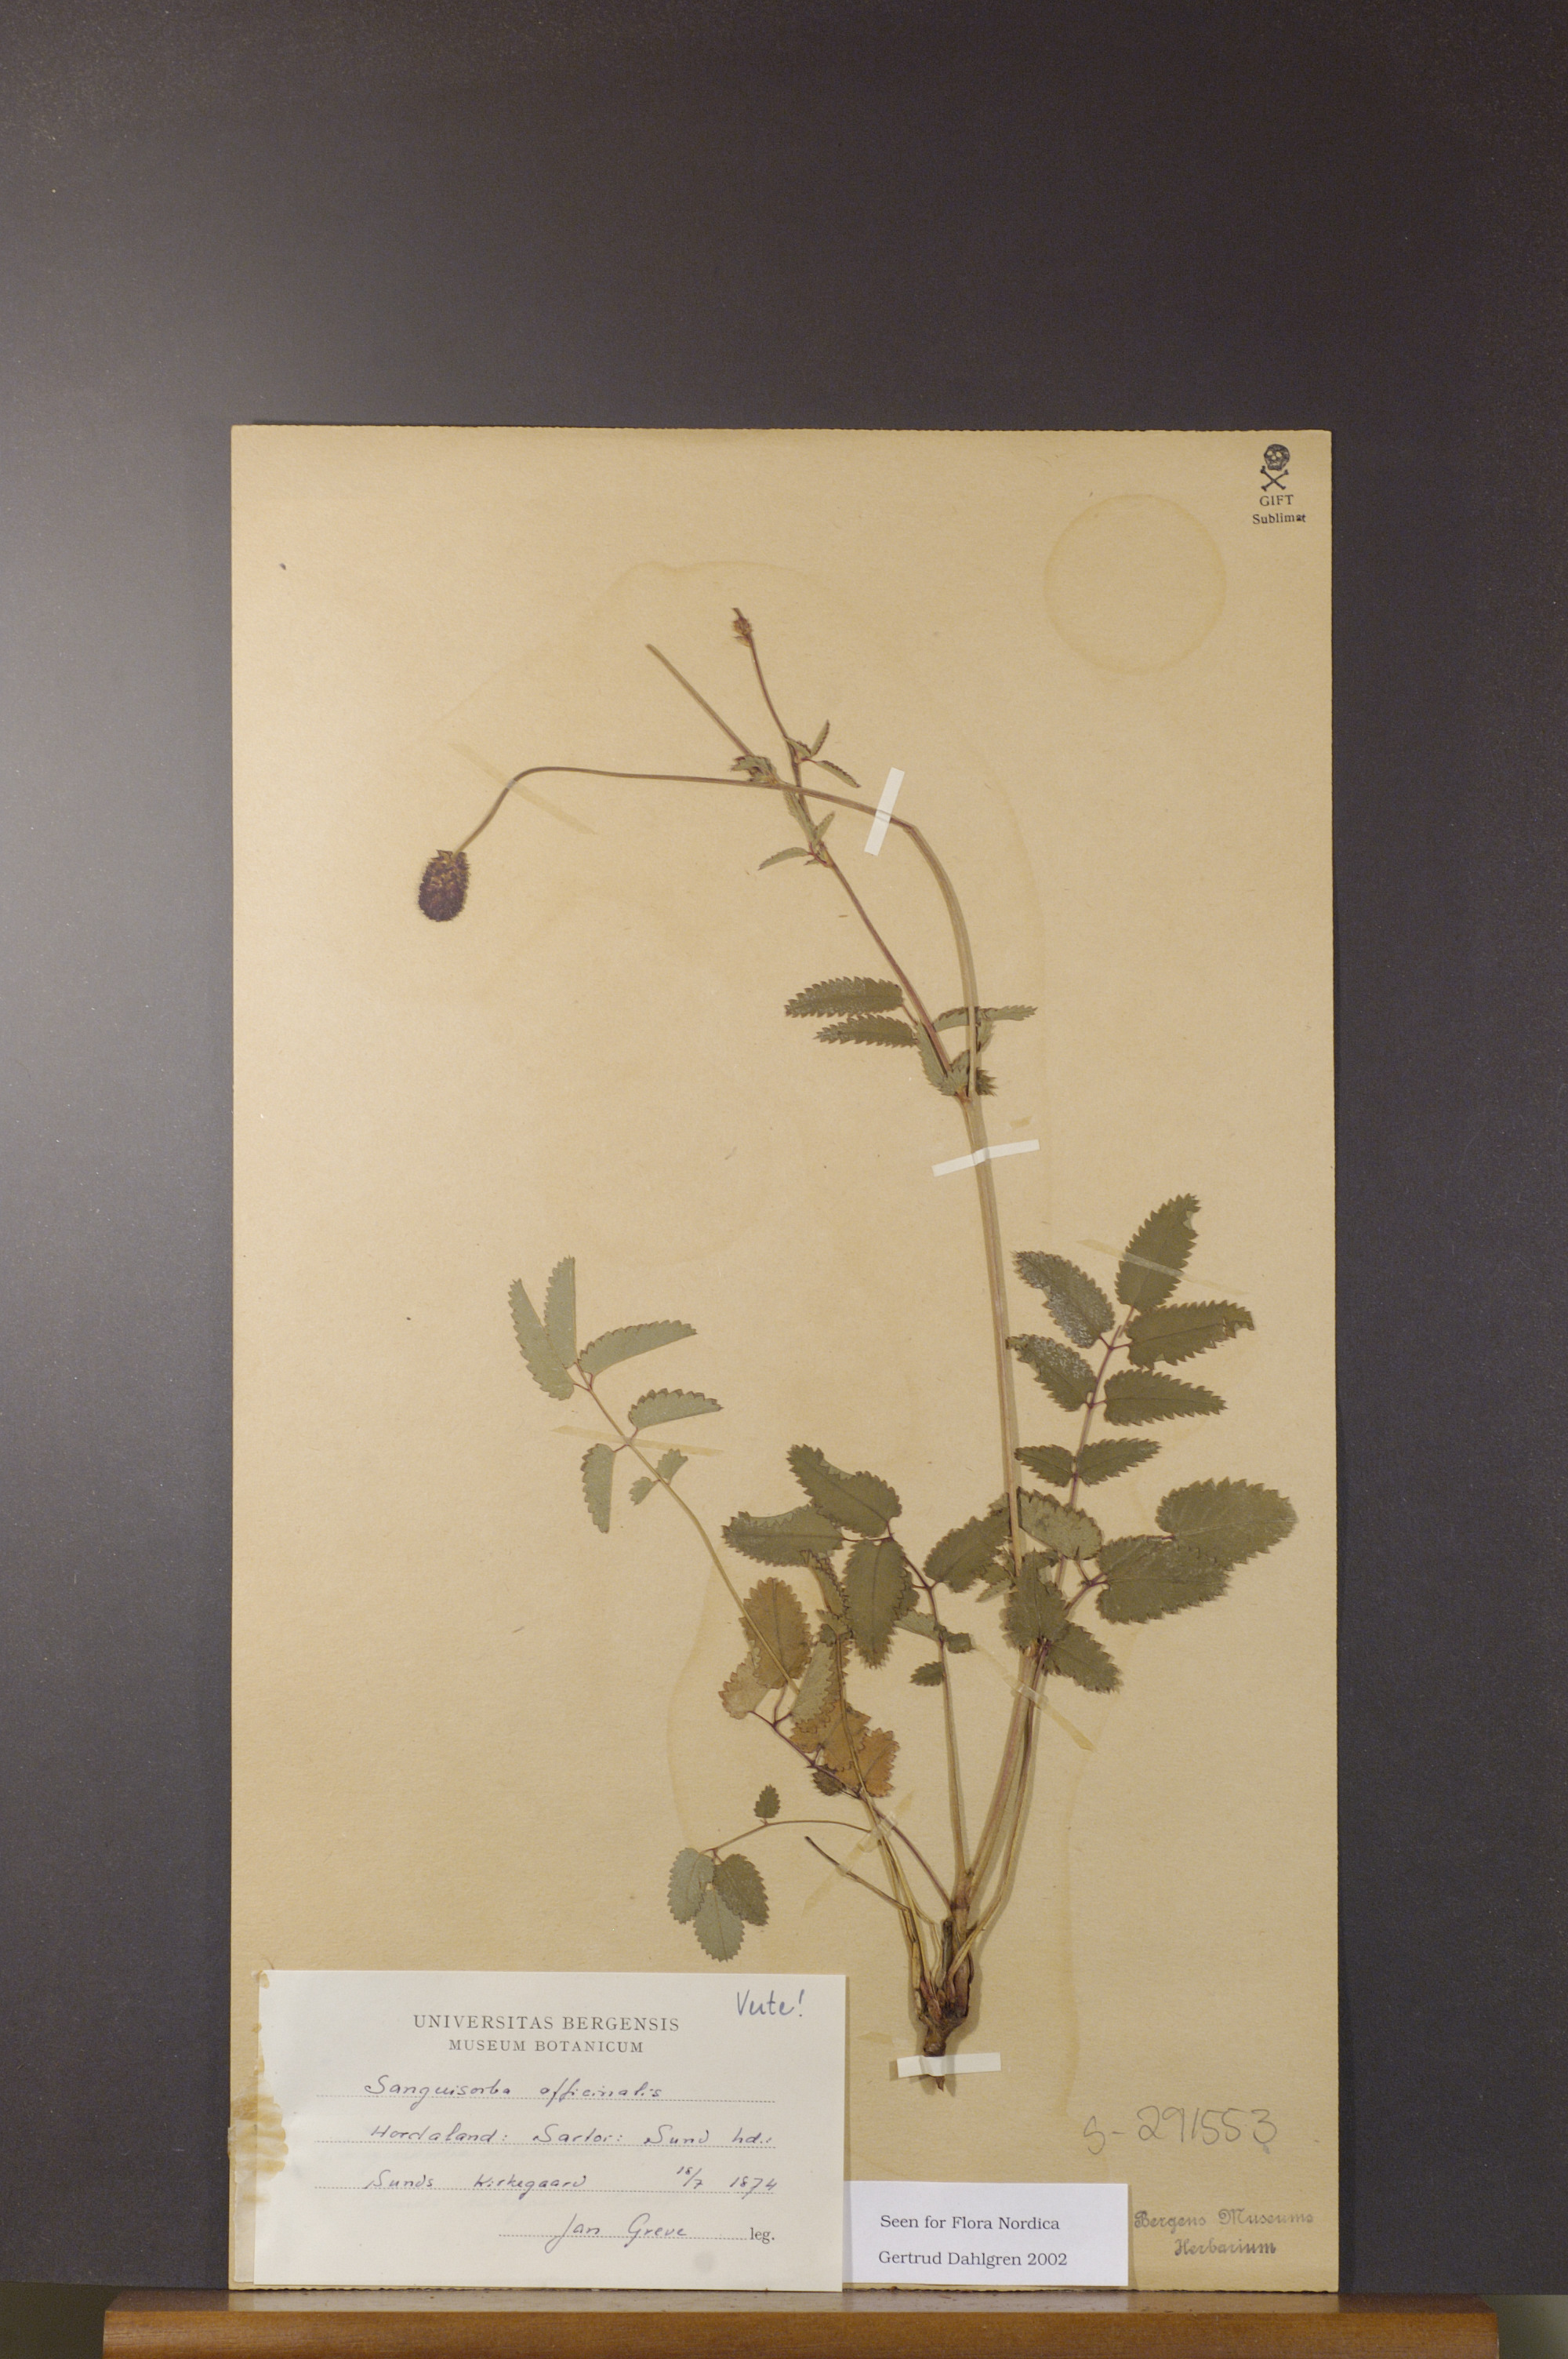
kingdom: Plantae
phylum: Tracheophyta
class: Magnoliopsida
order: Rosales
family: Rosaceae
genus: Sanguisorba
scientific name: Sanguisorba officinalis
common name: Great burnet
